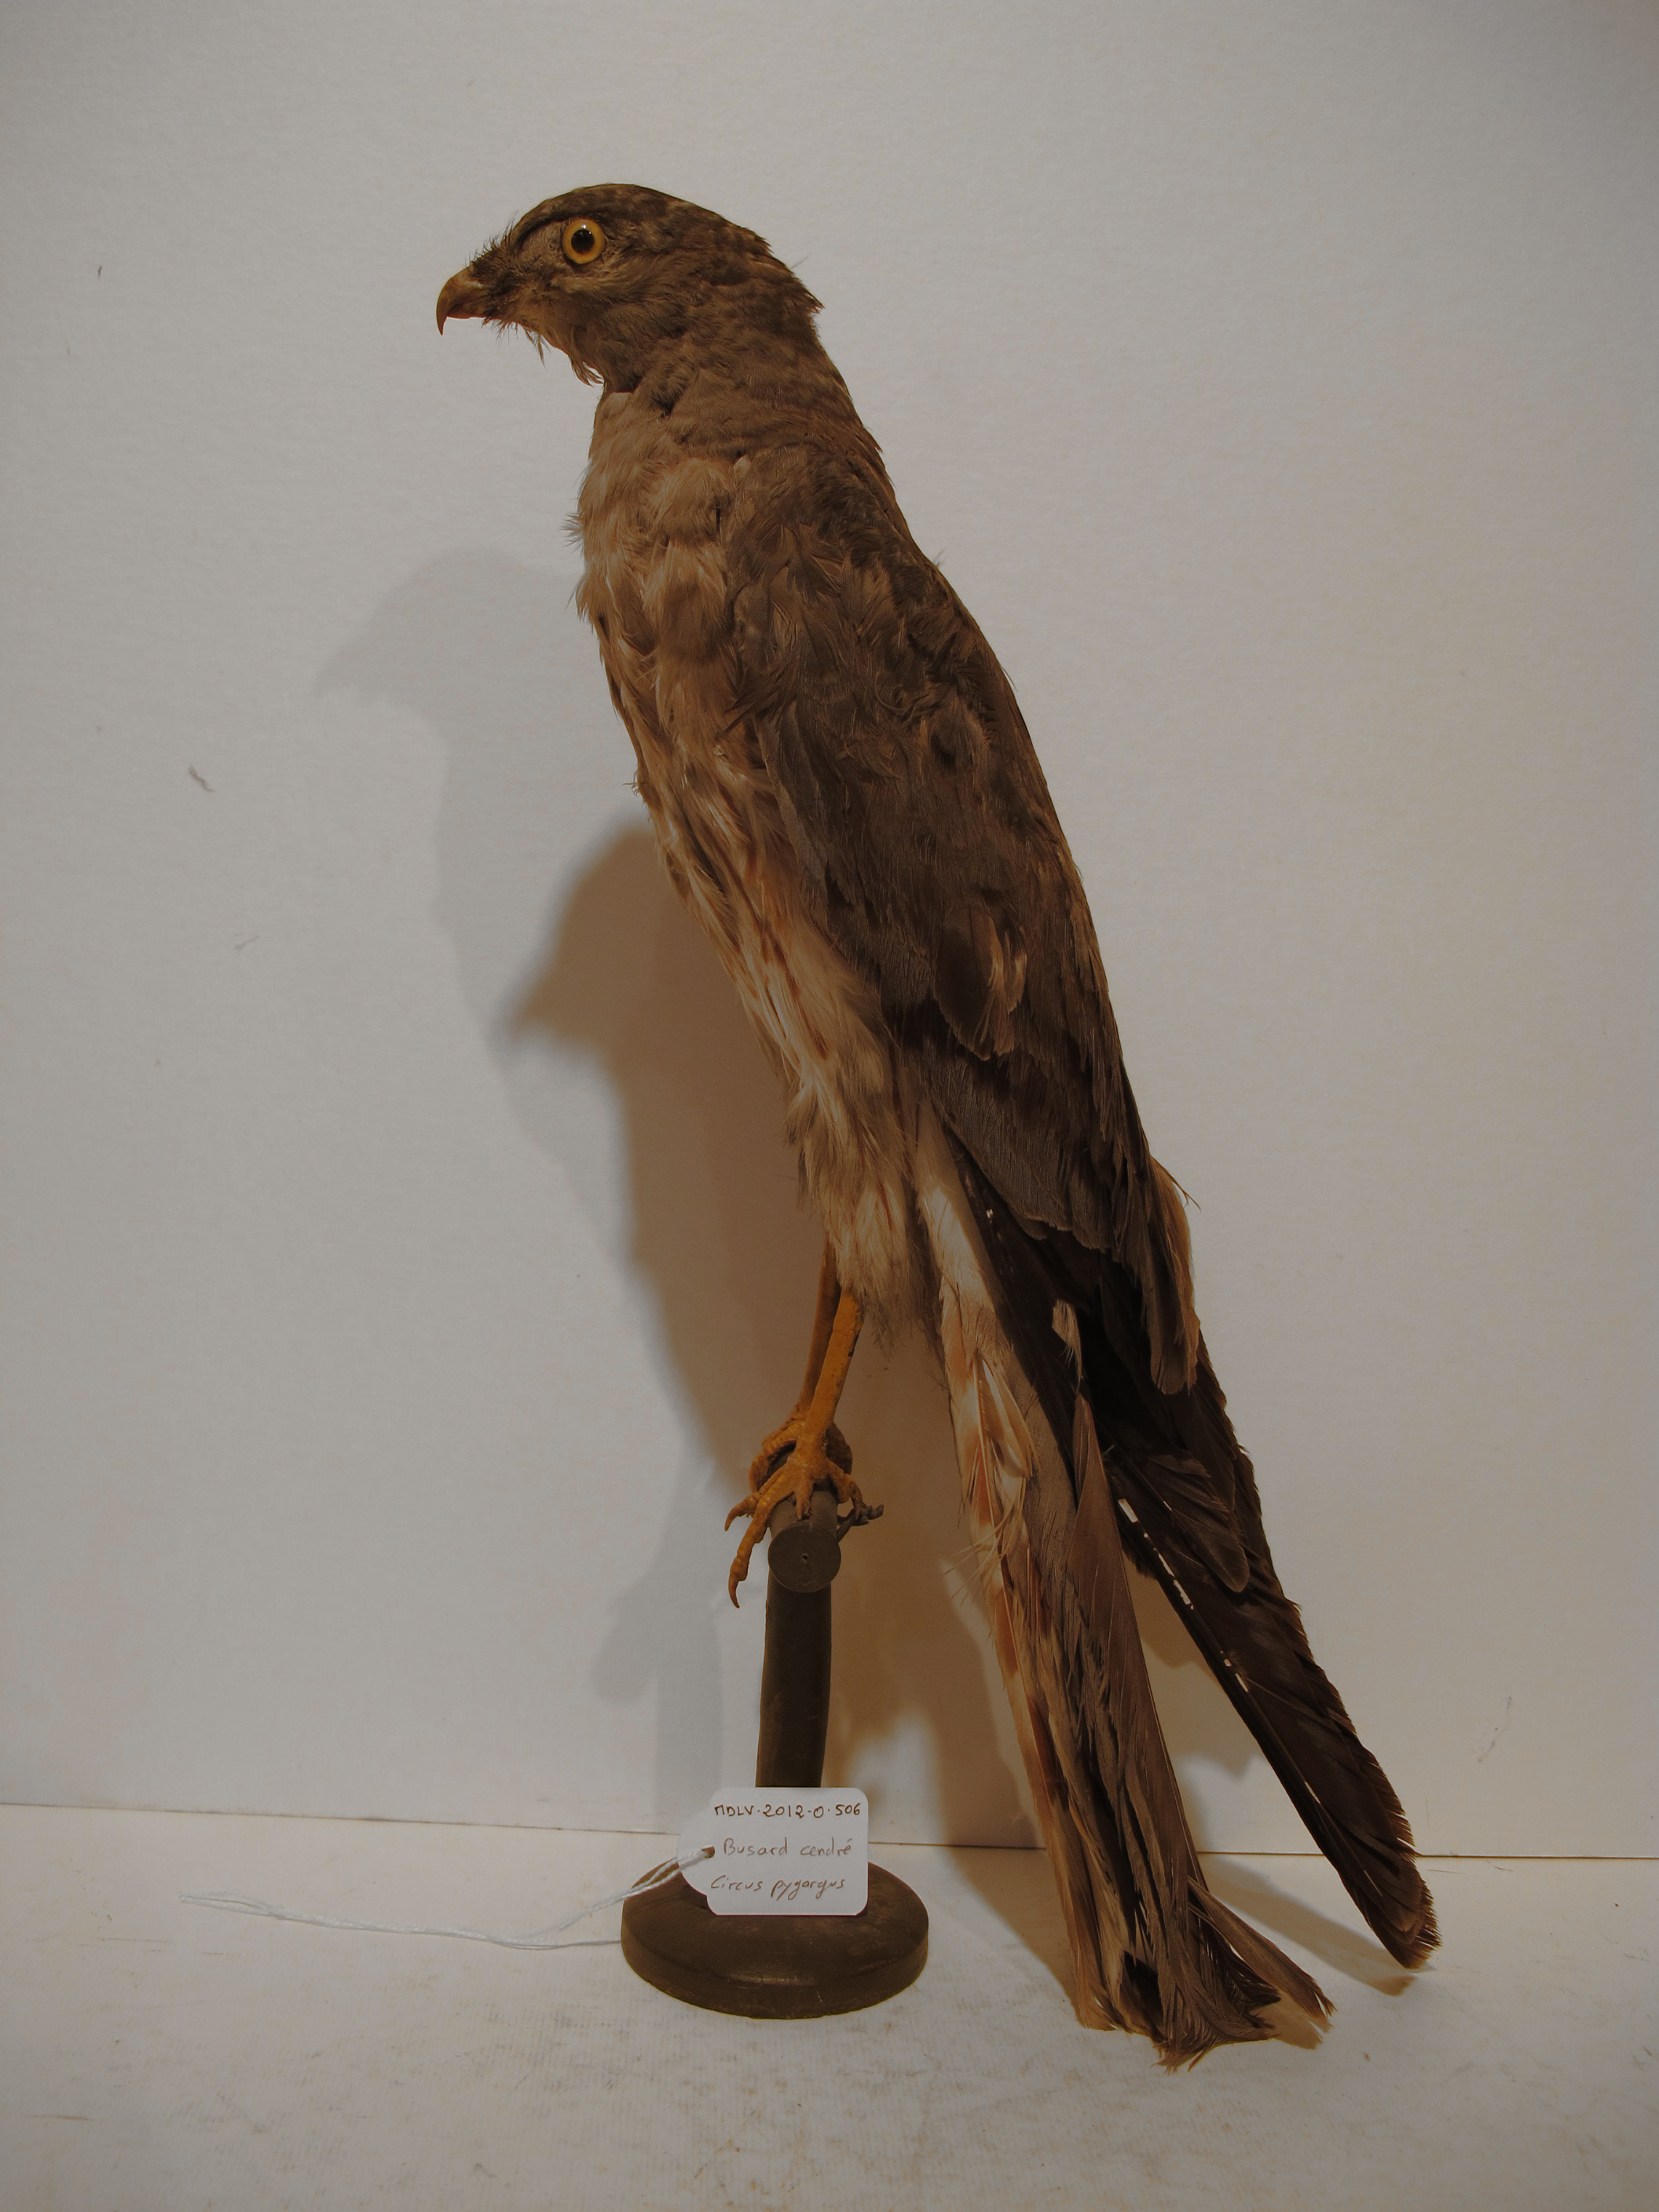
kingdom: Animalia
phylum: Chordata
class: Aves
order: Accipitriformes
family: Accipitridae
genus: Circus
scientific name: Circus pygargus
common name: Montagu's Harrier
